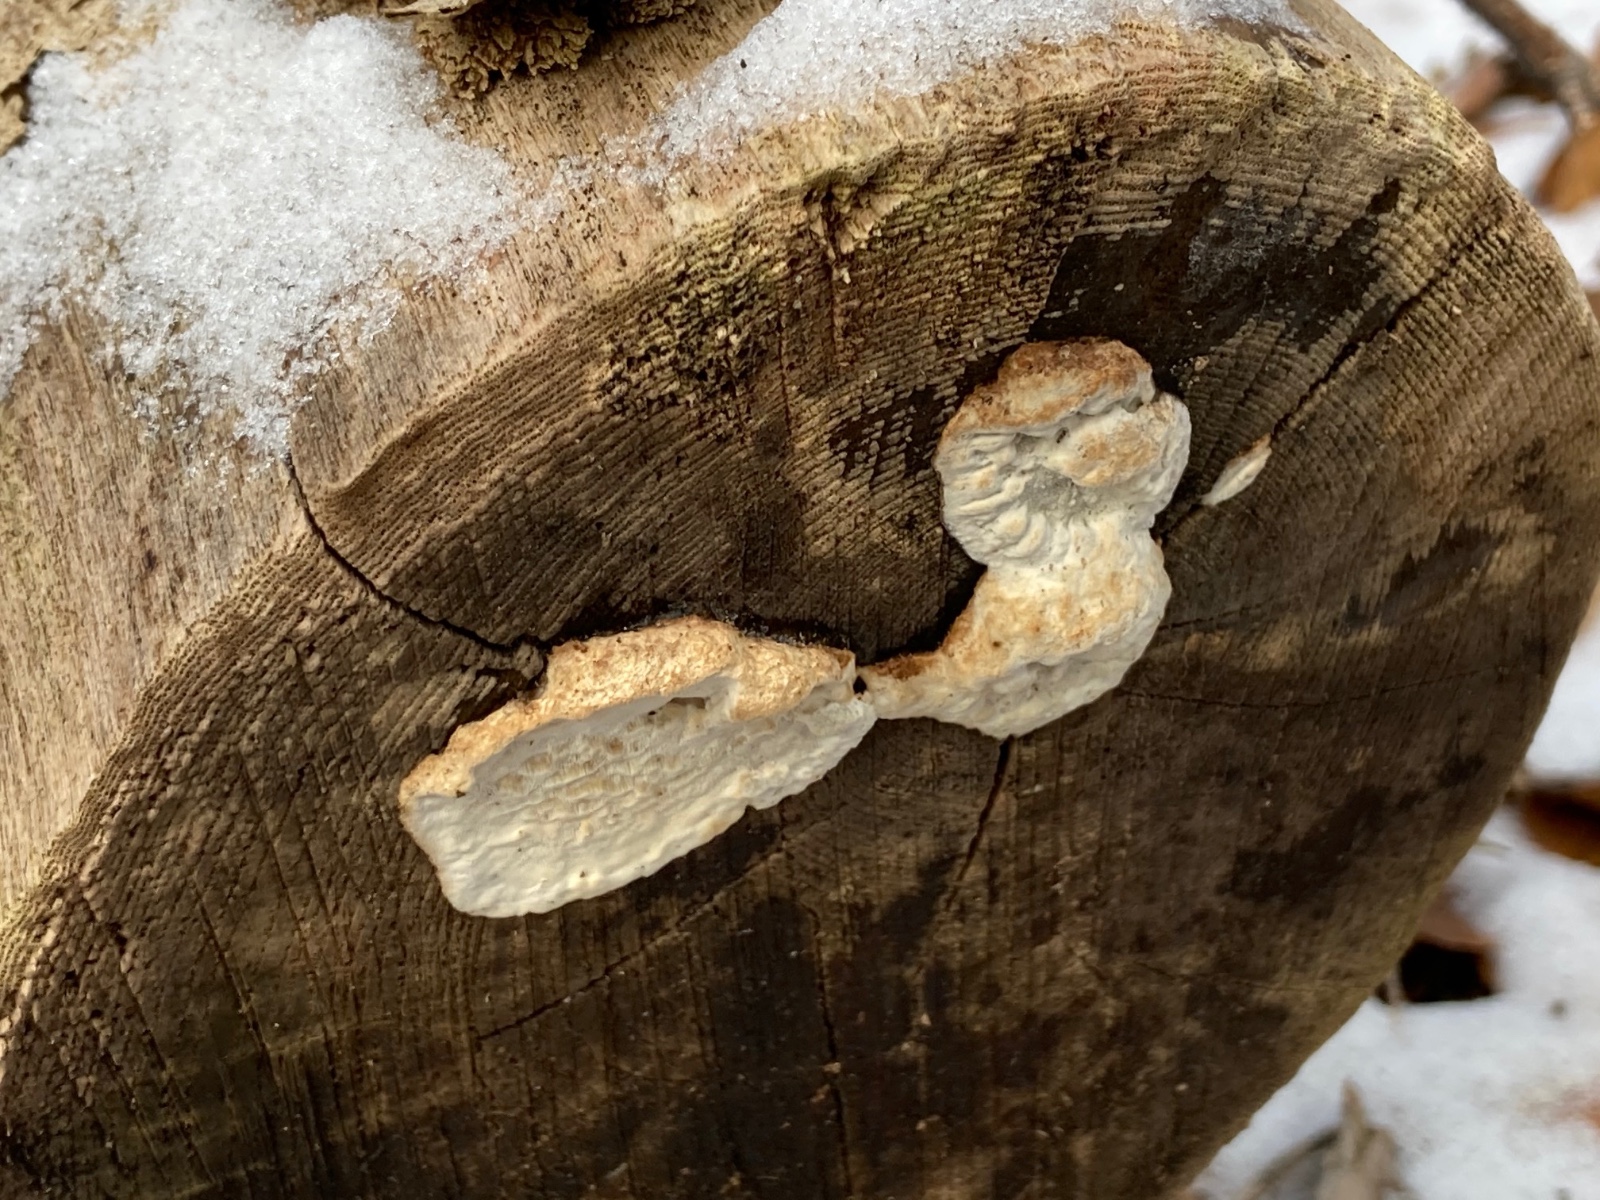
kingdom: Fungi
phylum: Basidiomycota
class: Agaricomycetes
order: Polyporales
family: Incrustoporiaceae
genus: Skeletocutis
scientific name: Skeletocutis nemoralis
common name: stor krystalporesvamp
